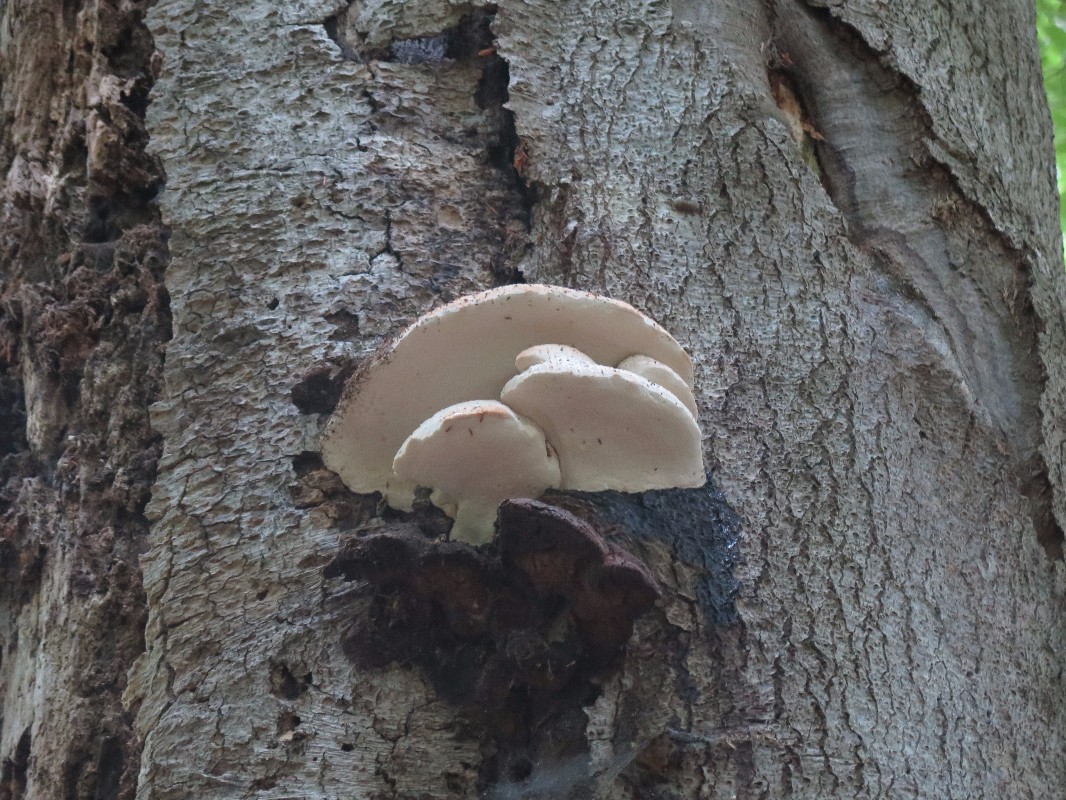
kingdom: Fungi
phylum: Basidiomycota
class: Agaricomycetes
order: Polyporales
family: Meruliaceae
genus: Pappia
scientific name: Pappia fissilis
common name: rosa fedtporesvamp
